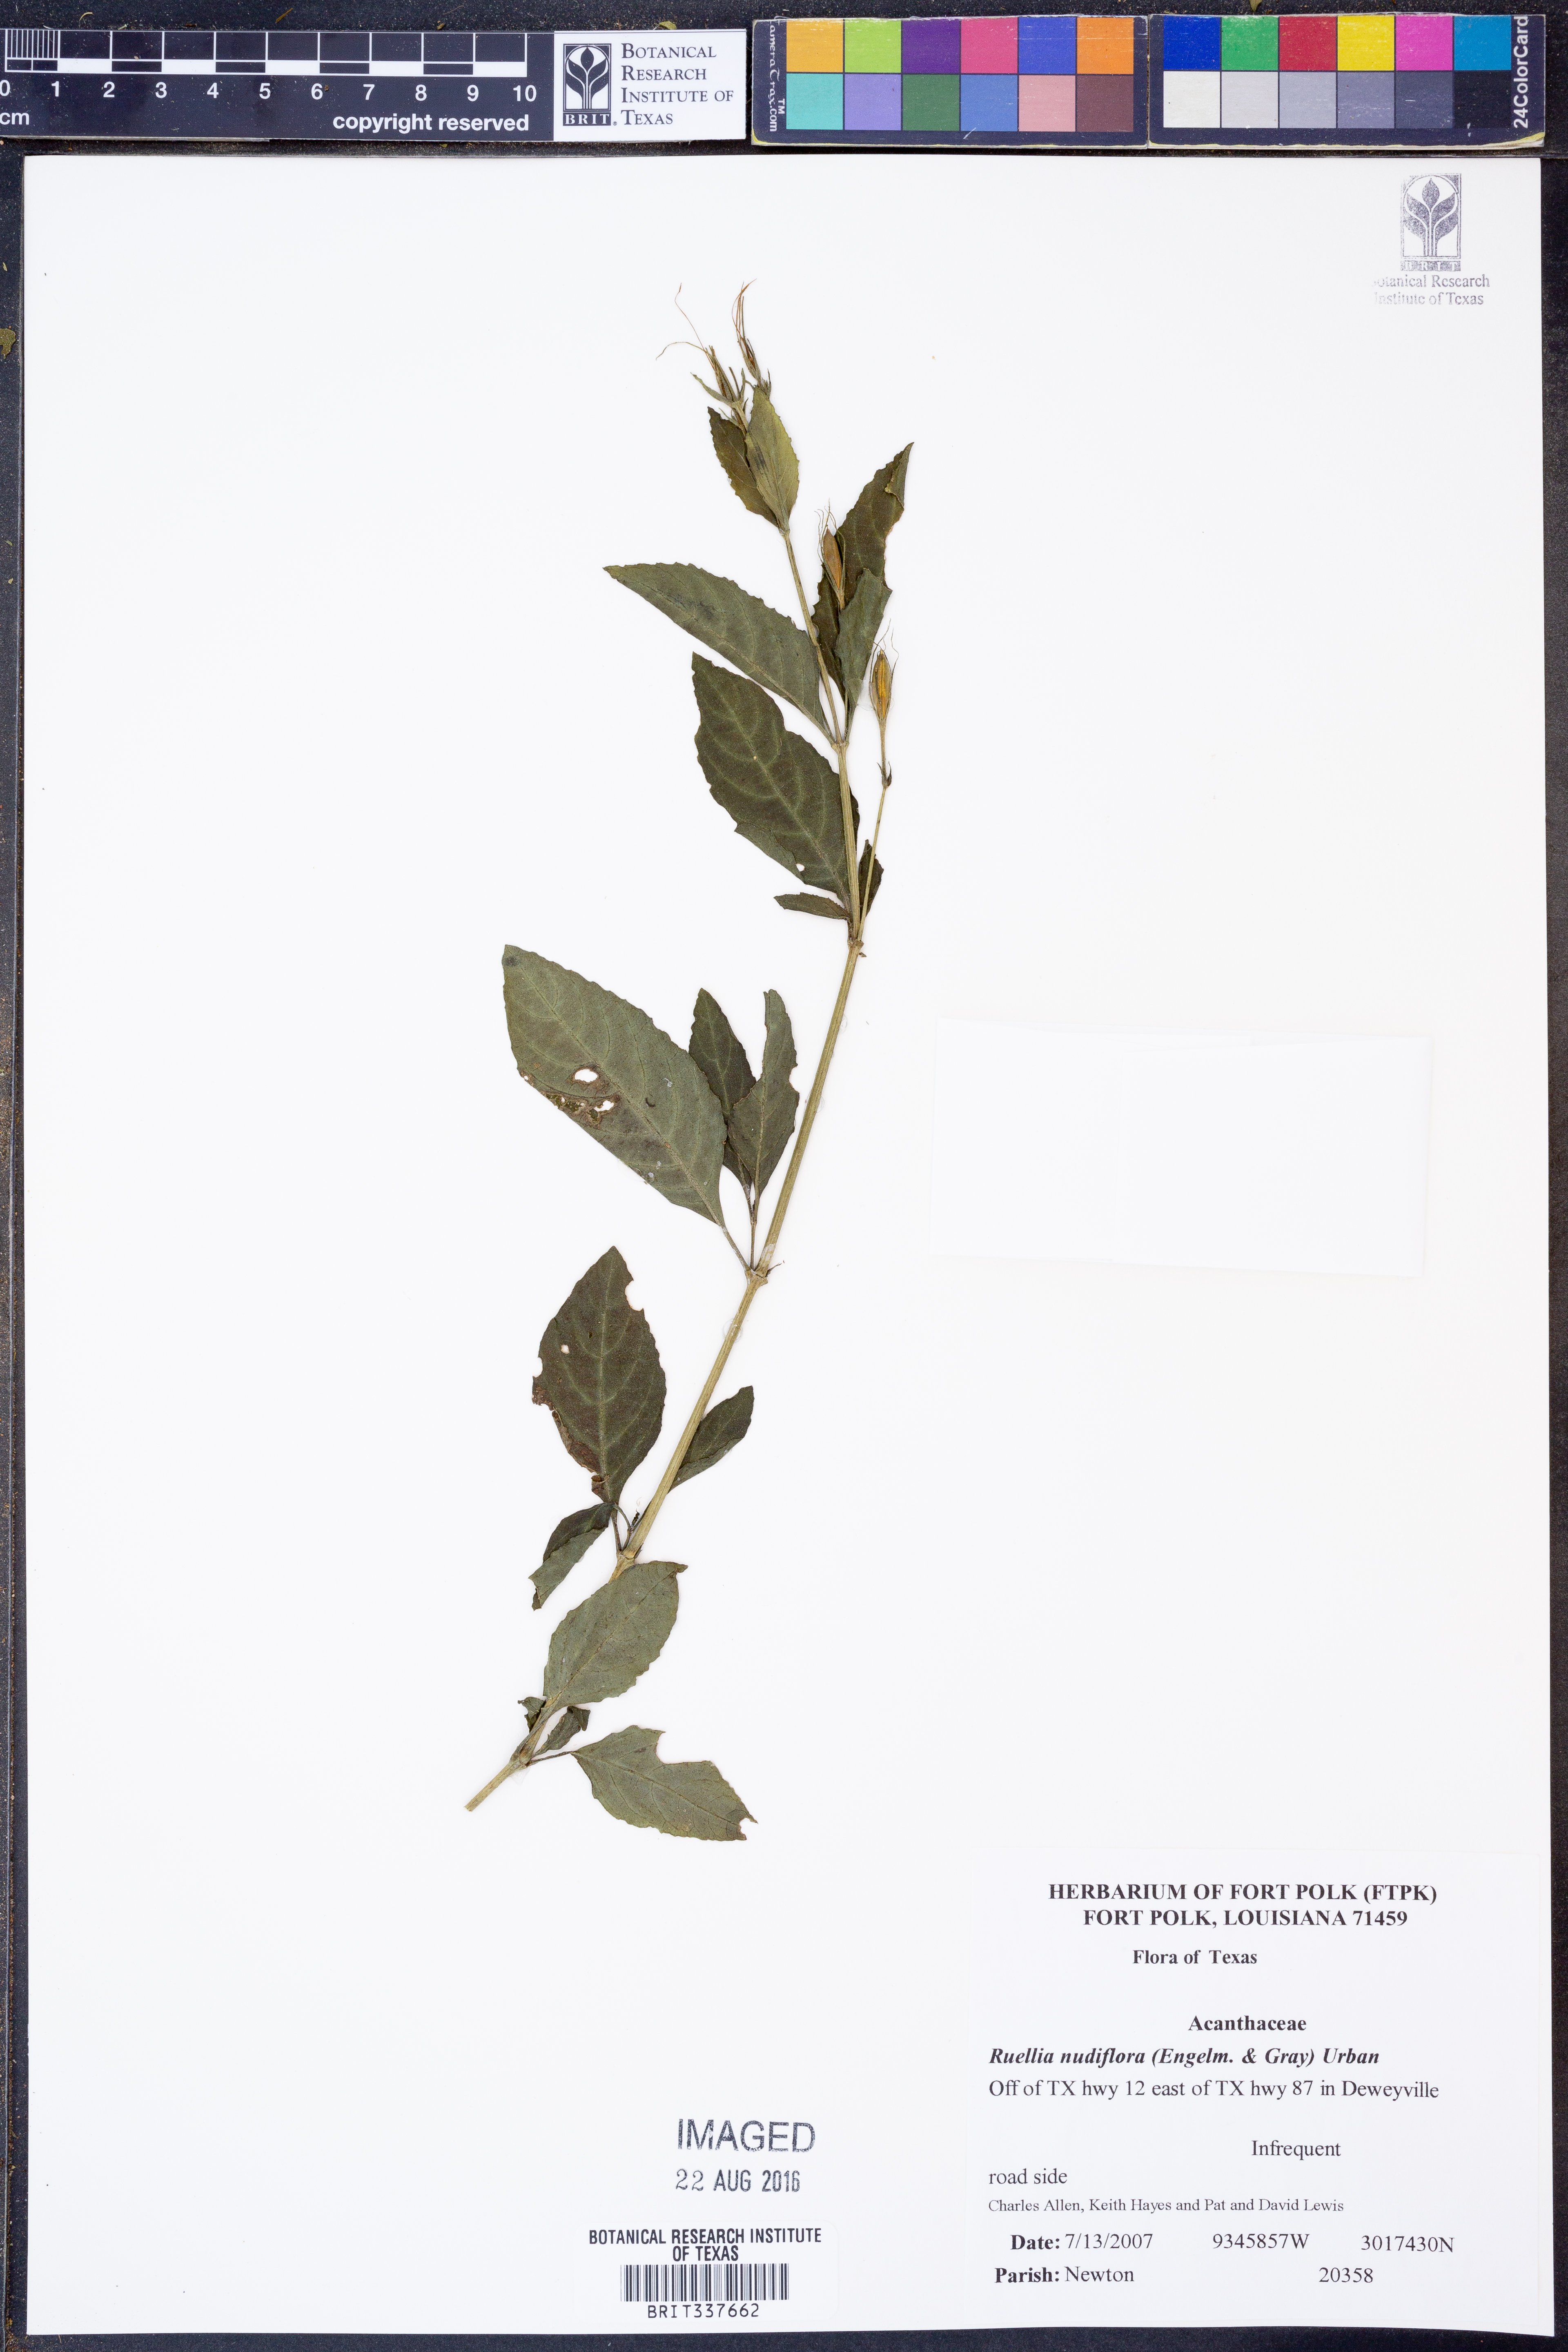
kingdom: Plantae
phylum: Tracheophyta
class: Magnoliopsida
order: Lamiales
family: Acanthaceae
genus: Ruellia
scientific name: Ruellia ciliatiflora
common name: Hairyflower wild petunia
